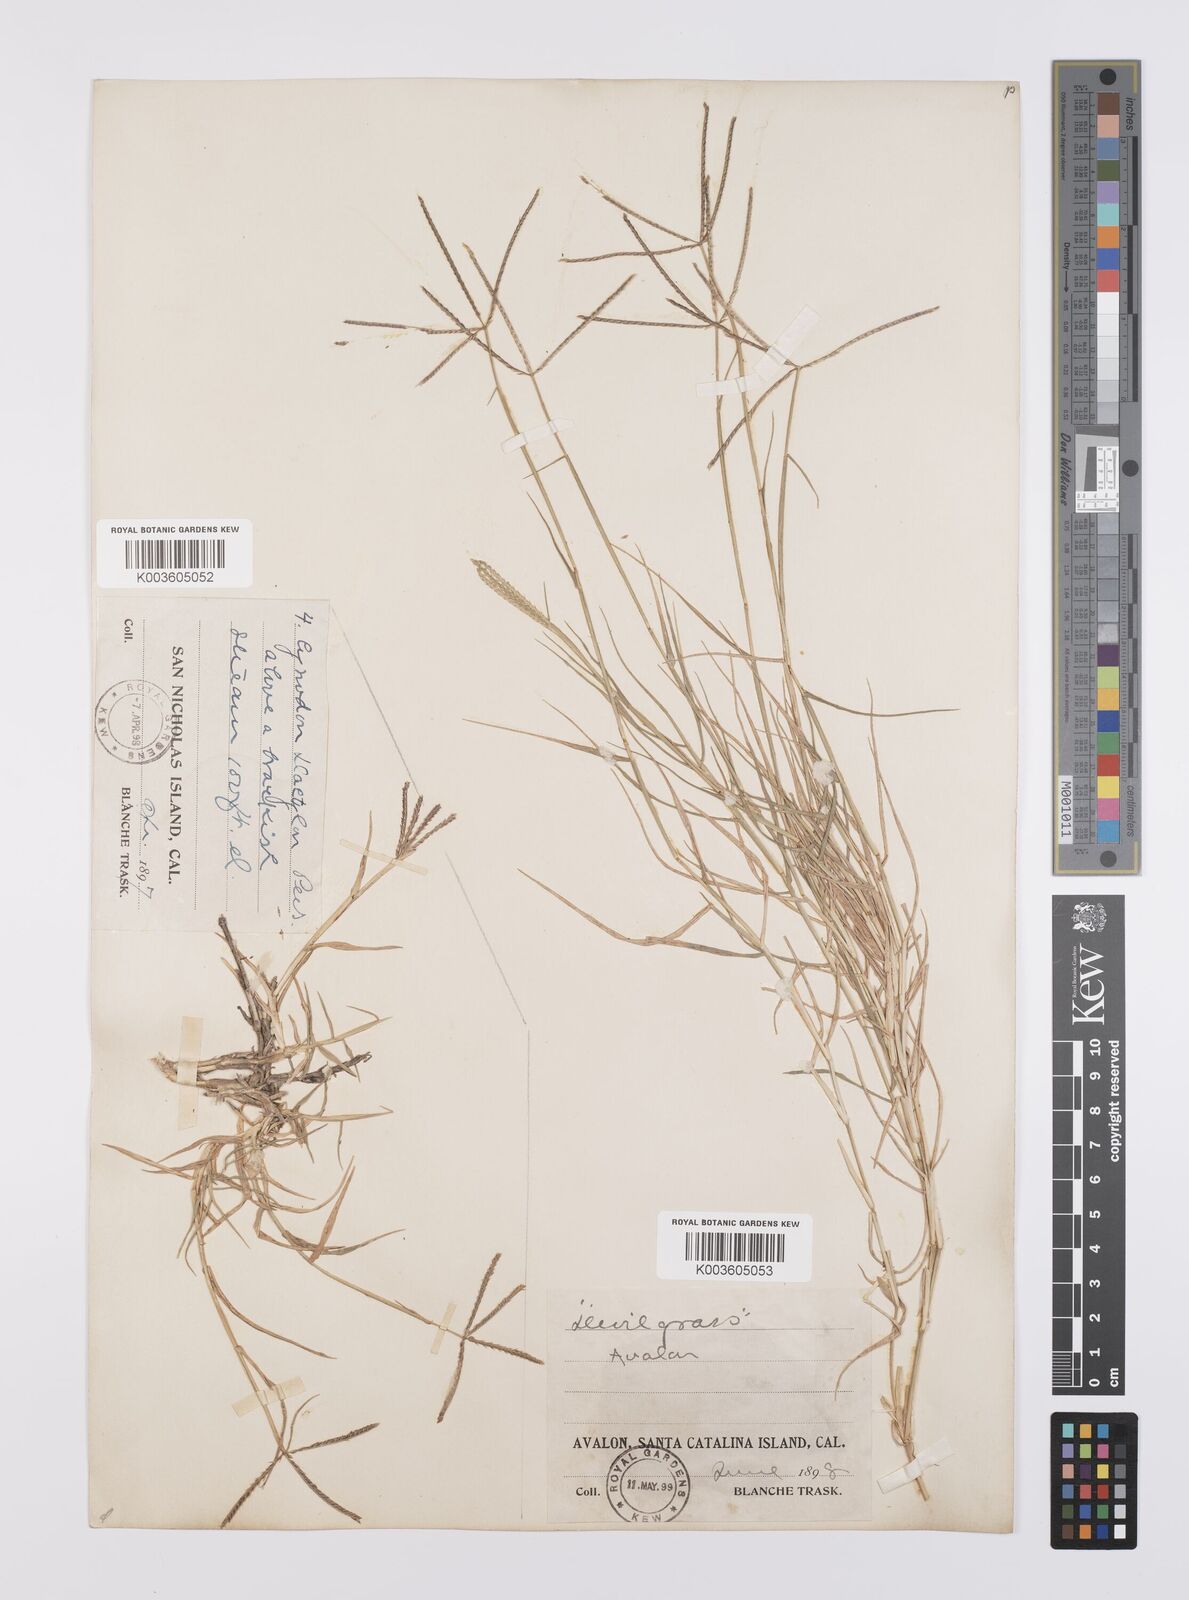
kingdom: Plantae
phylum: Tracheophyta
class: Liliopsida
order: Poales
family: Poaceae
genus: Cynodon
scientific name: Cynodon dactylon
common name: Bermuda grass
